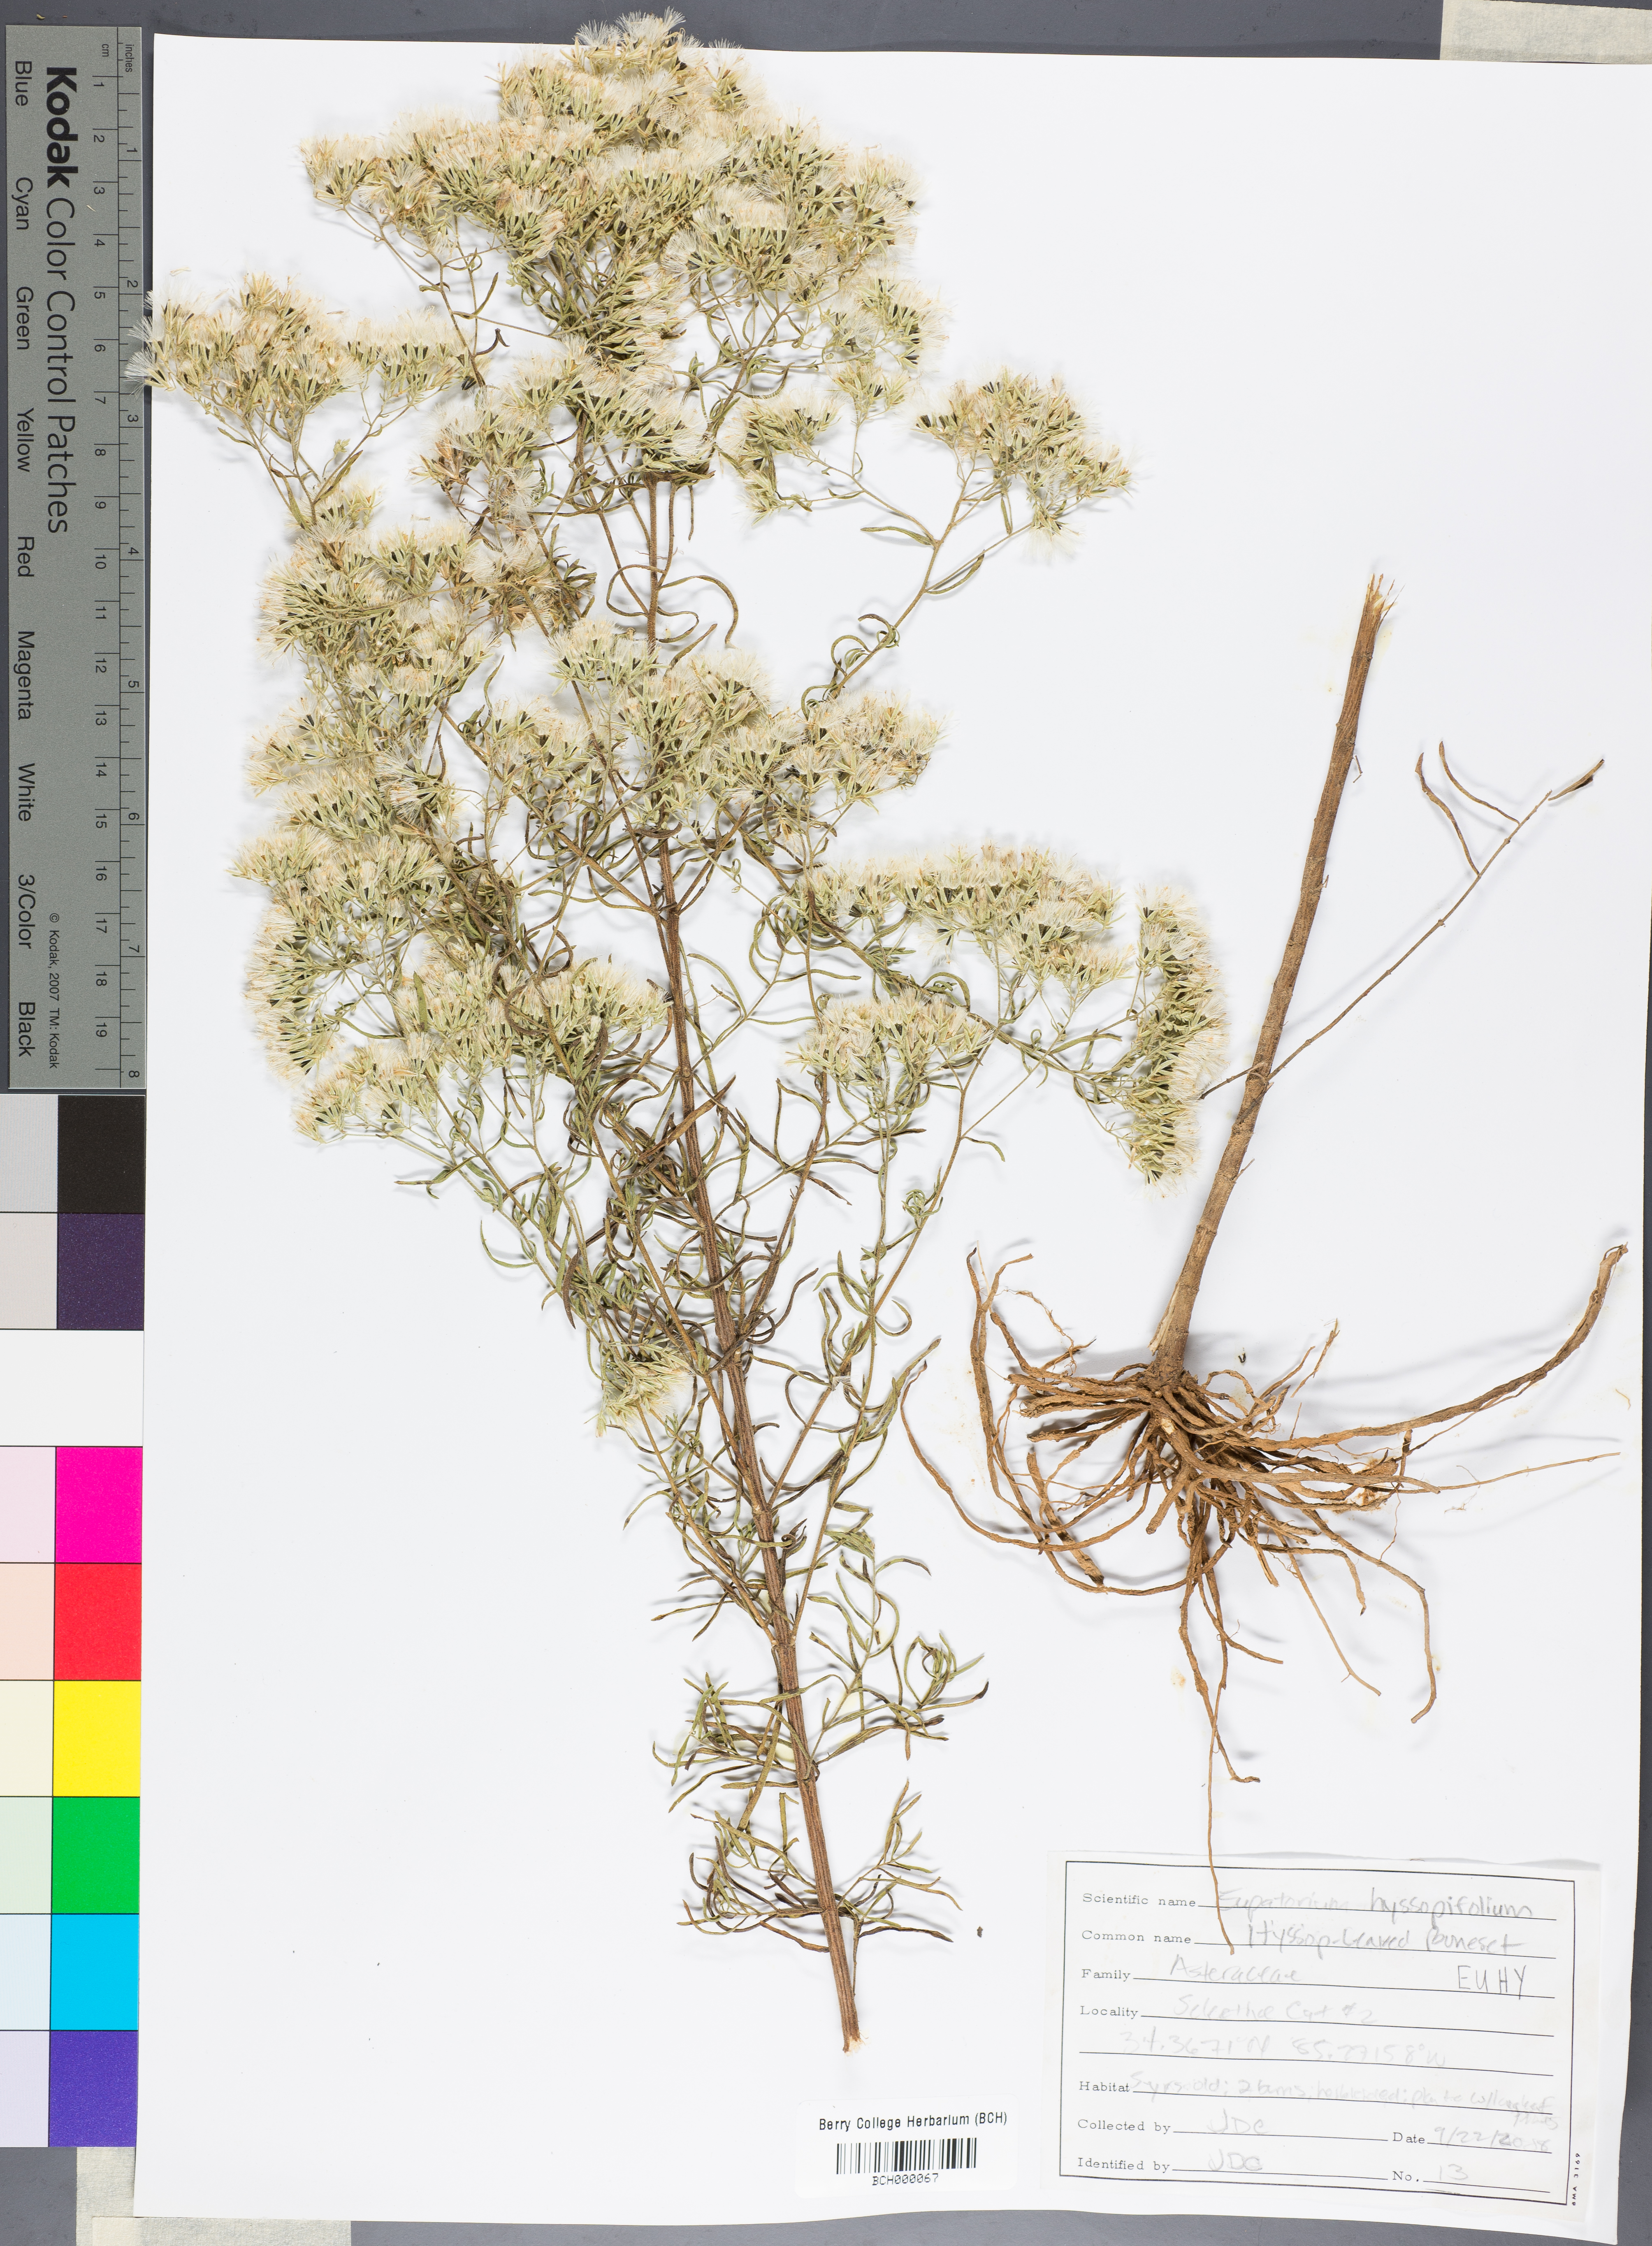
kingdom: Plantae
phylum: Tracheophyta
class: Magnoliopsida
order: Asterales
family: Asteraceae
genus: Eupatorium
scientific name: Eupatorium hyssopifolium
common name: Hyssop-leaf thoroughwort
